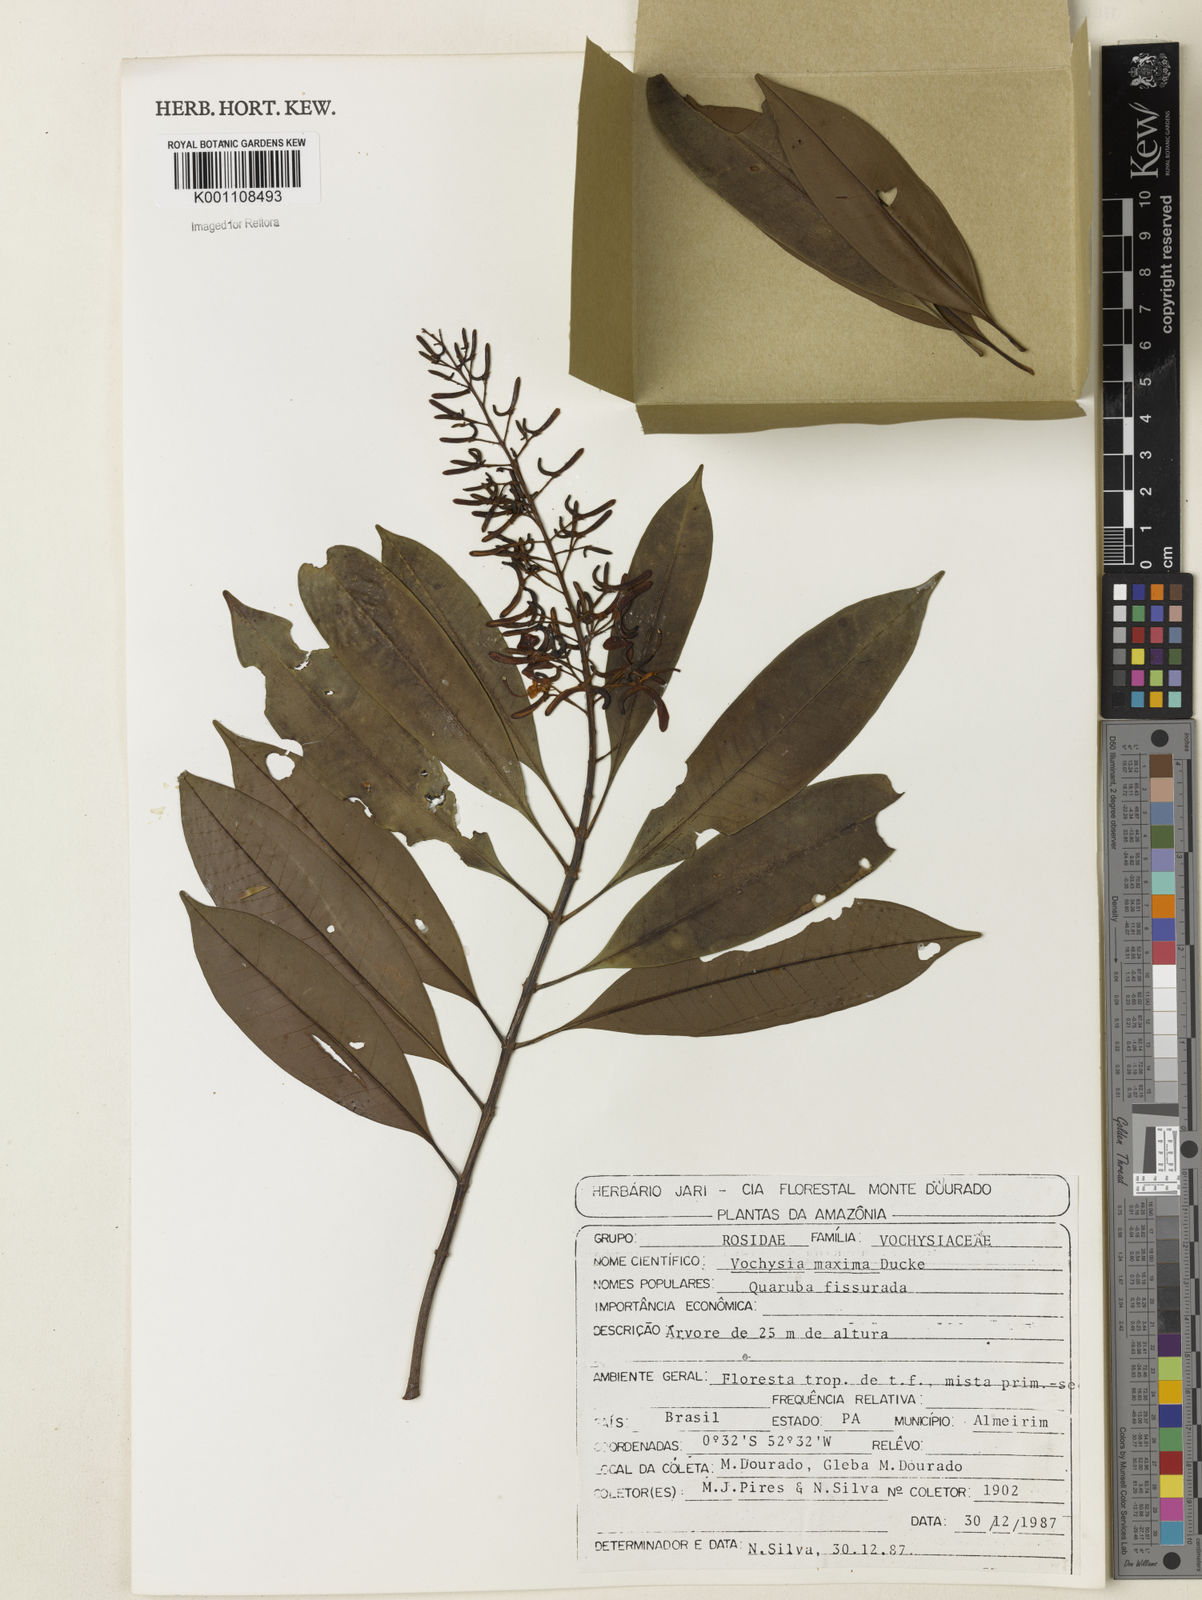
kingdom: Plantae
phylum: Tracheophyta
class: Magnoliopsida
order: Myrtales
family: Vochysiaceae
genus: Vochysia
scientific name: Vochysia maxima
